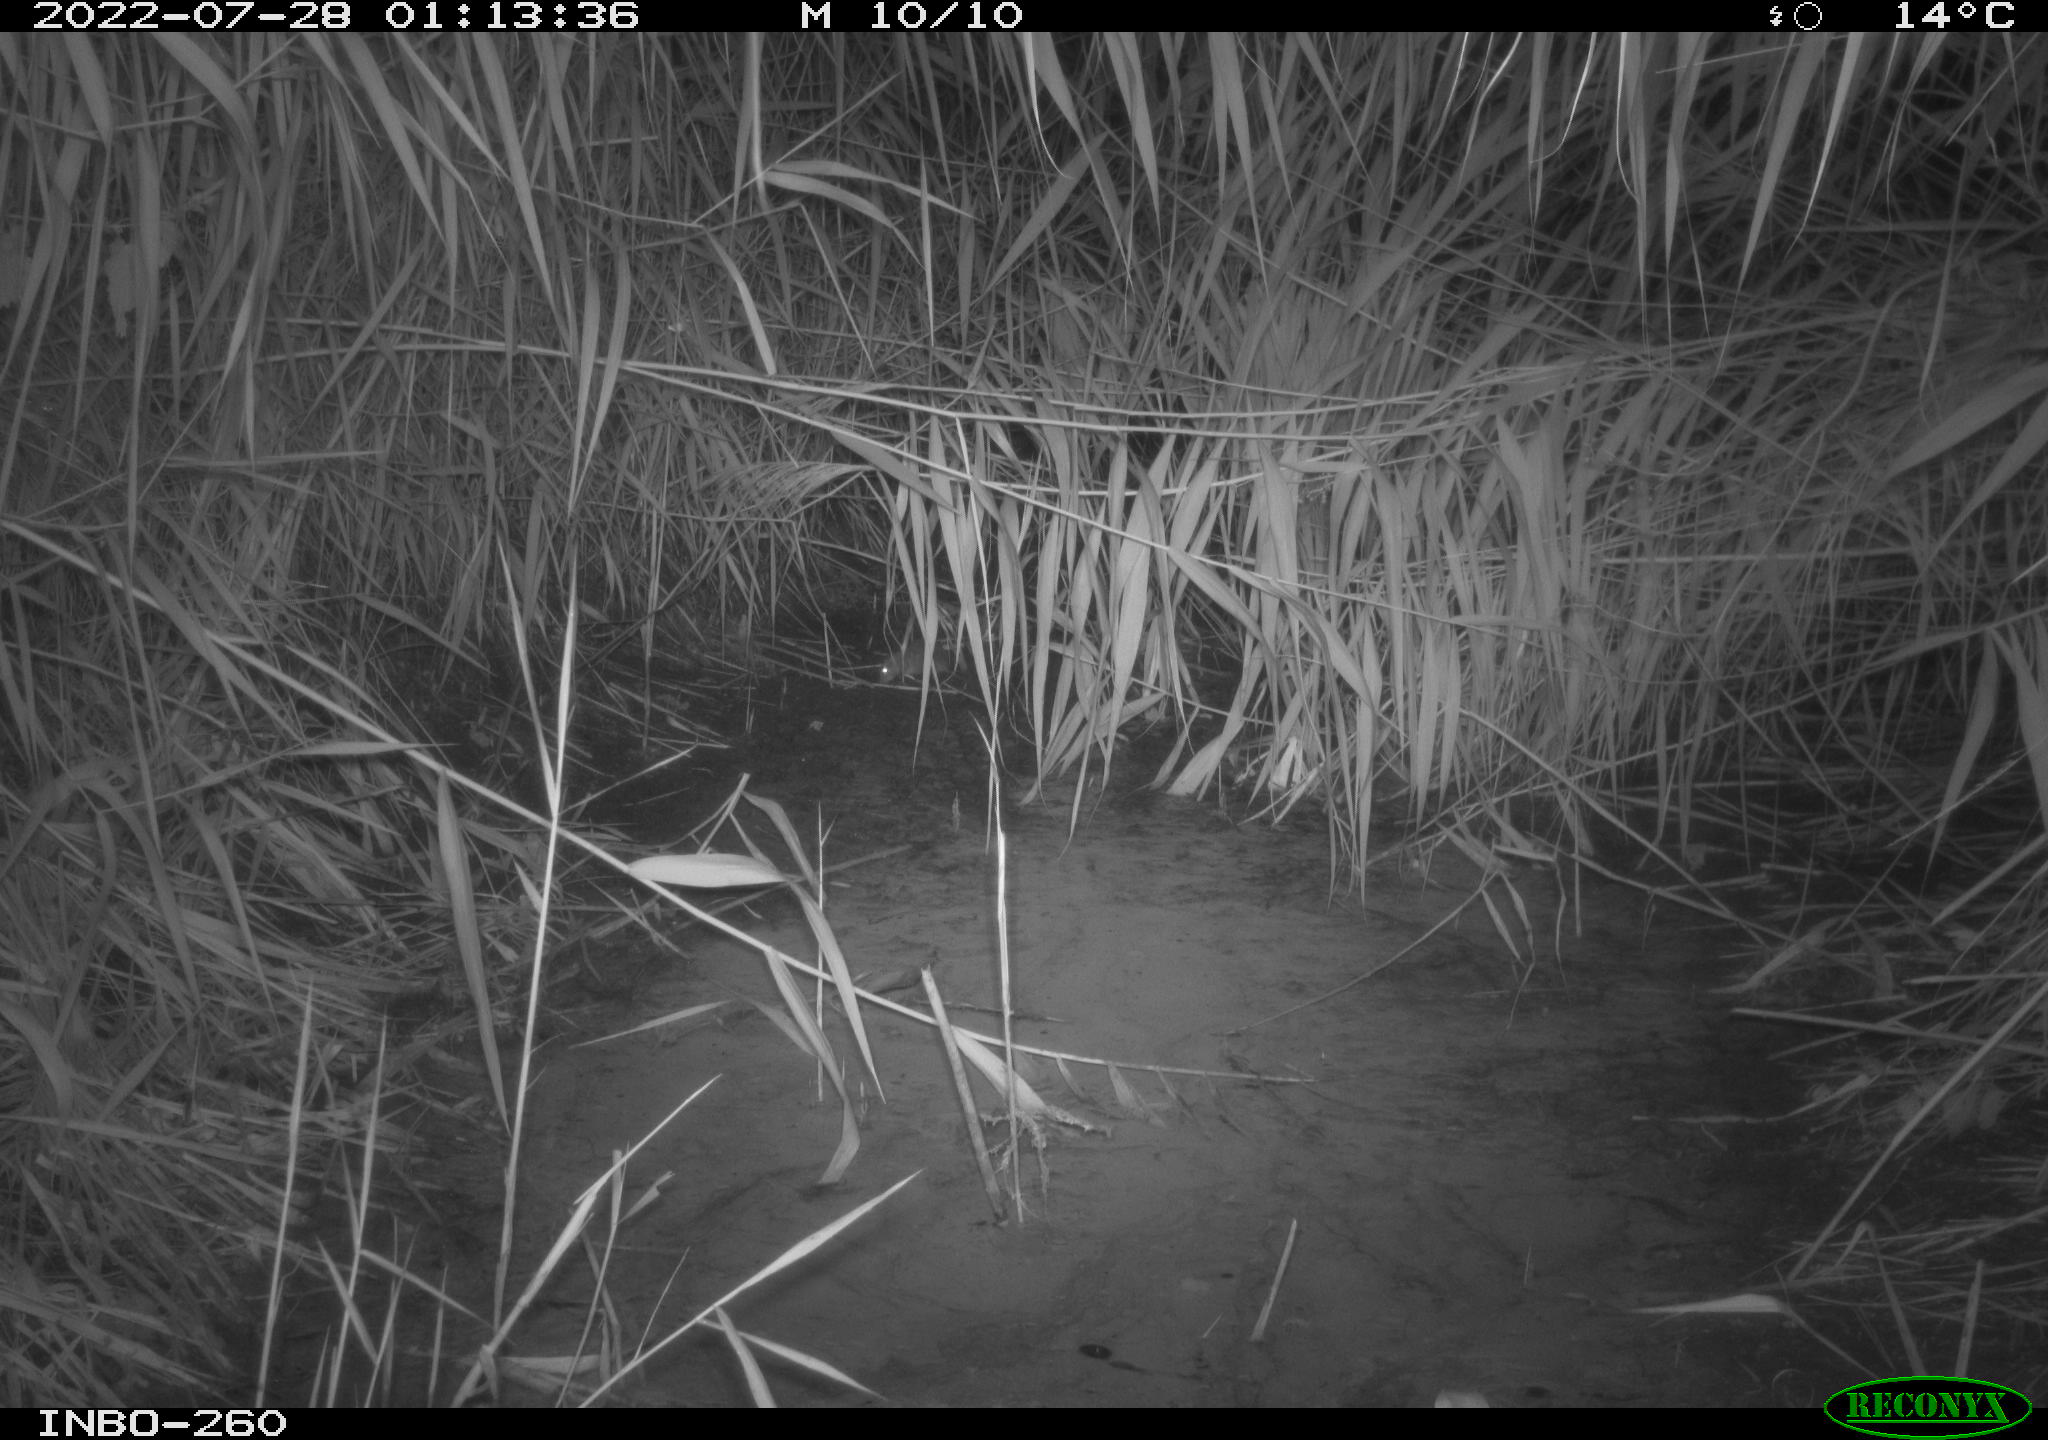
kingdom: Animalia
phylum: Chordata
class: Mammalia
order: Rodentia
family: Muridae
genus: Rattus
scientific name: Rattus norvegicus
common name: Brown rat
